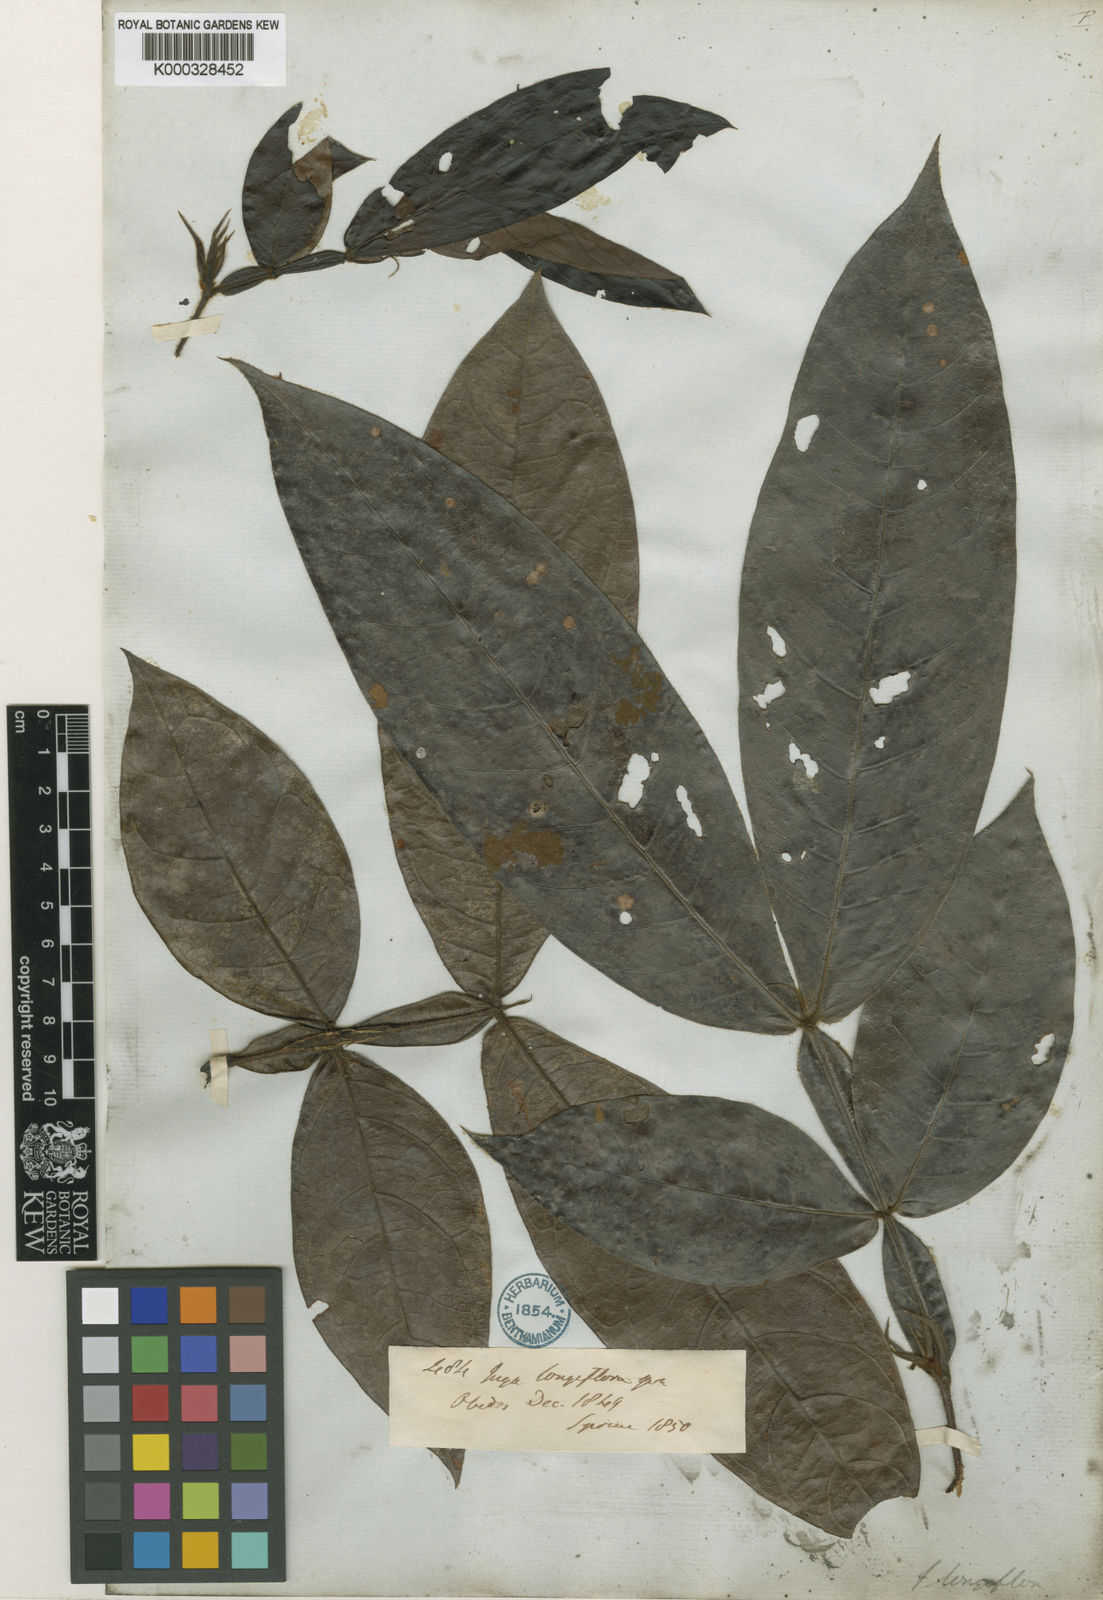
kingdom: Plantae
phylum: Tracheophyta
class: Magnoliopsida
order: Fabales
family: Fabaceae
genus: Inga
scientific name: Inga longiflora
